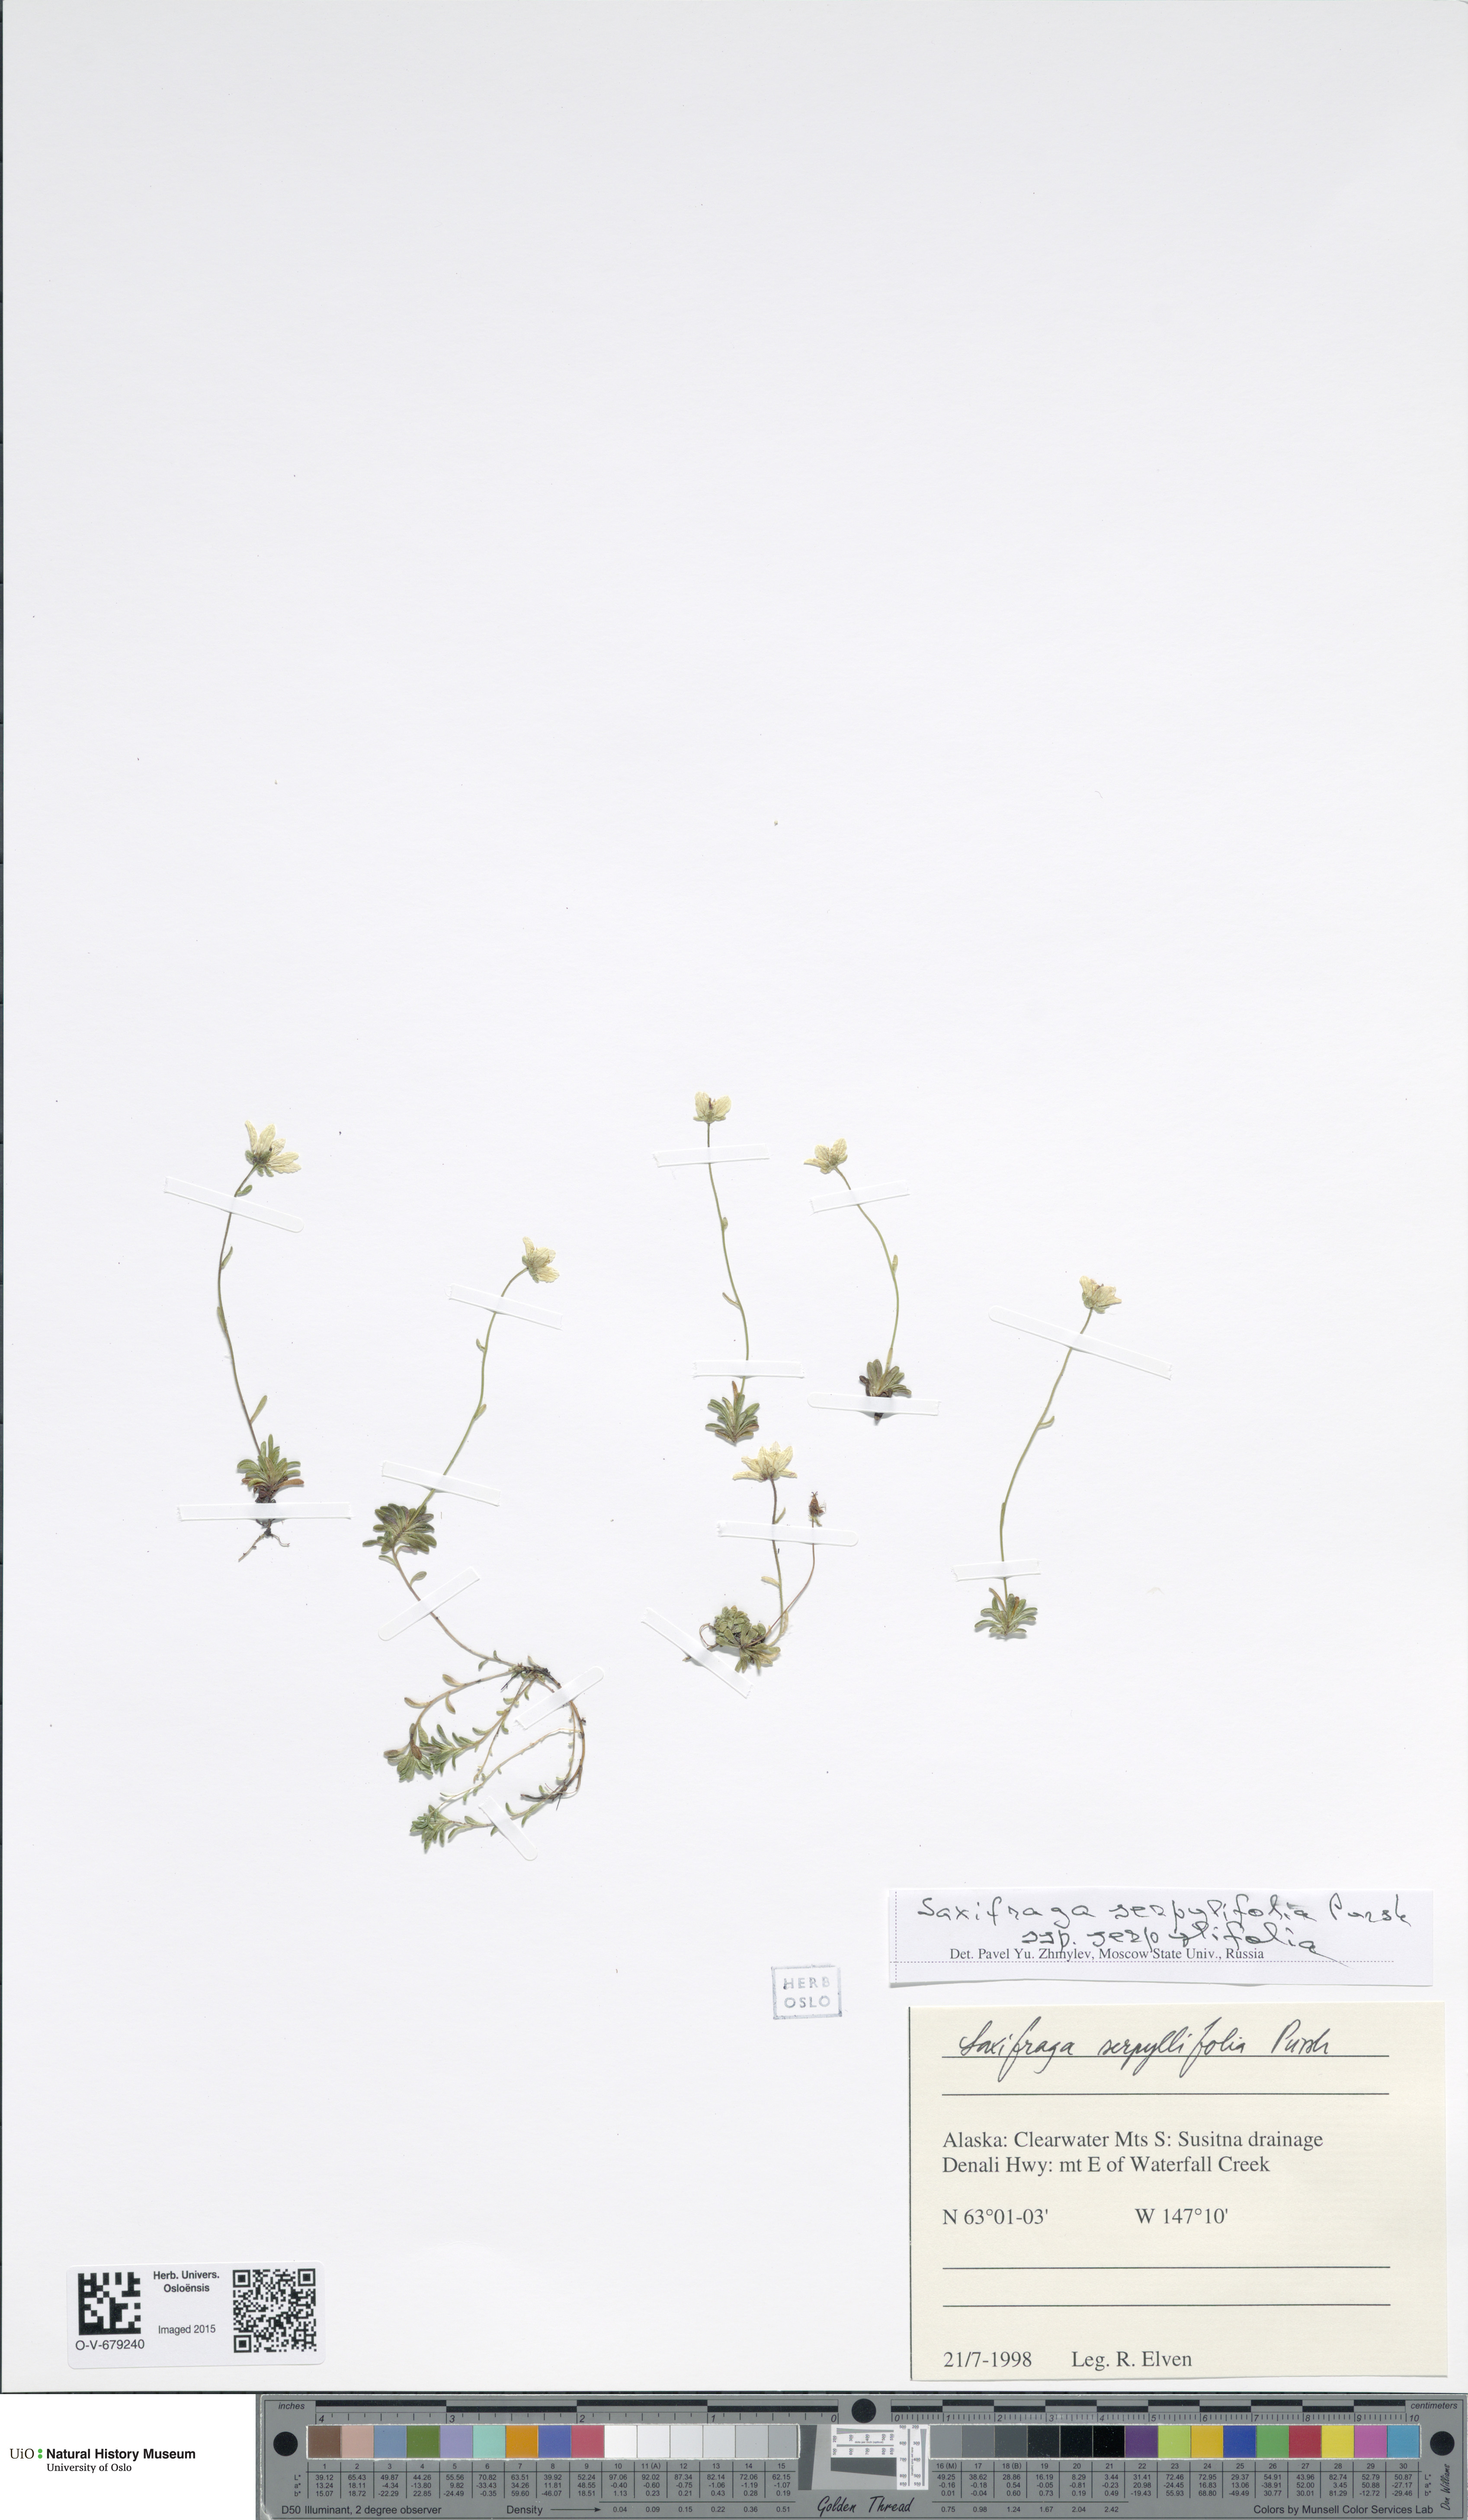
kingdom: Plantae
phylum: Tracheophyta
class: Magnoliopsida
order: Saxifragales
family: Saxifragaceae
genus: Saxifraga
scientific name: Saxifraga serpyllifolia
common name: Thyme-leaved saxifrage
